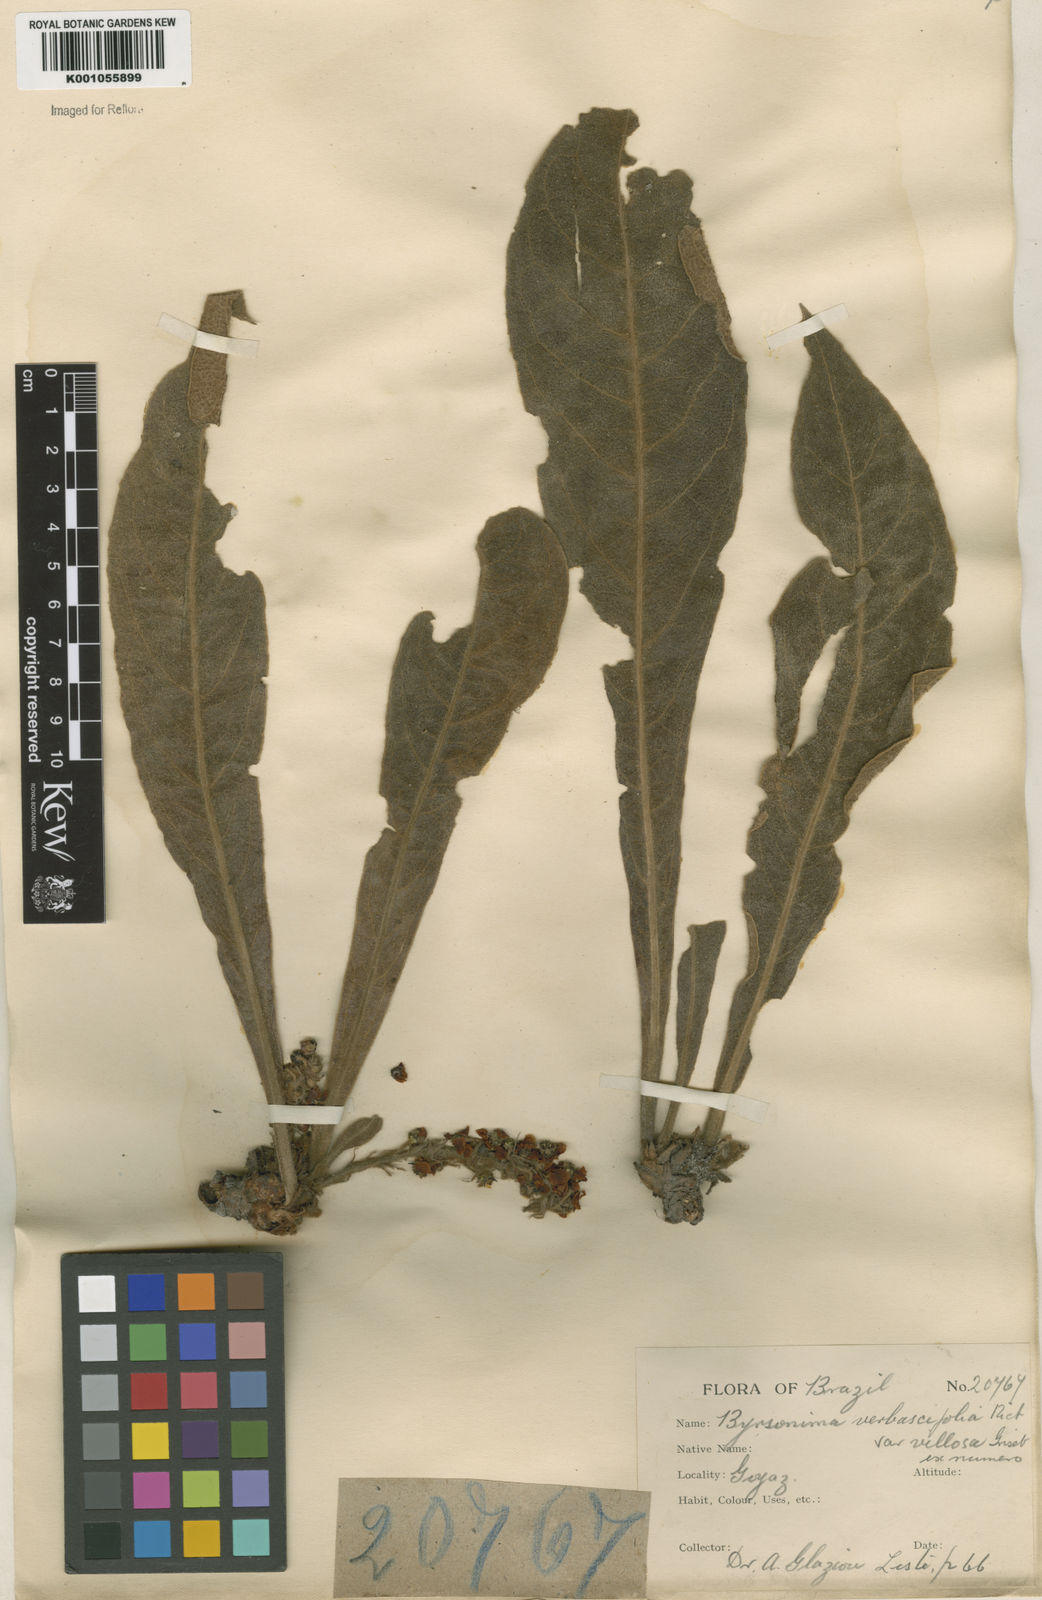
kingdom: Plantae
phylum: Tracheophyta
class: Magnoliopsida
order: Malpighiales
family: Malpighiaceae
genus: Byrsonima
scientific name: Byrsonima verbascifolia
